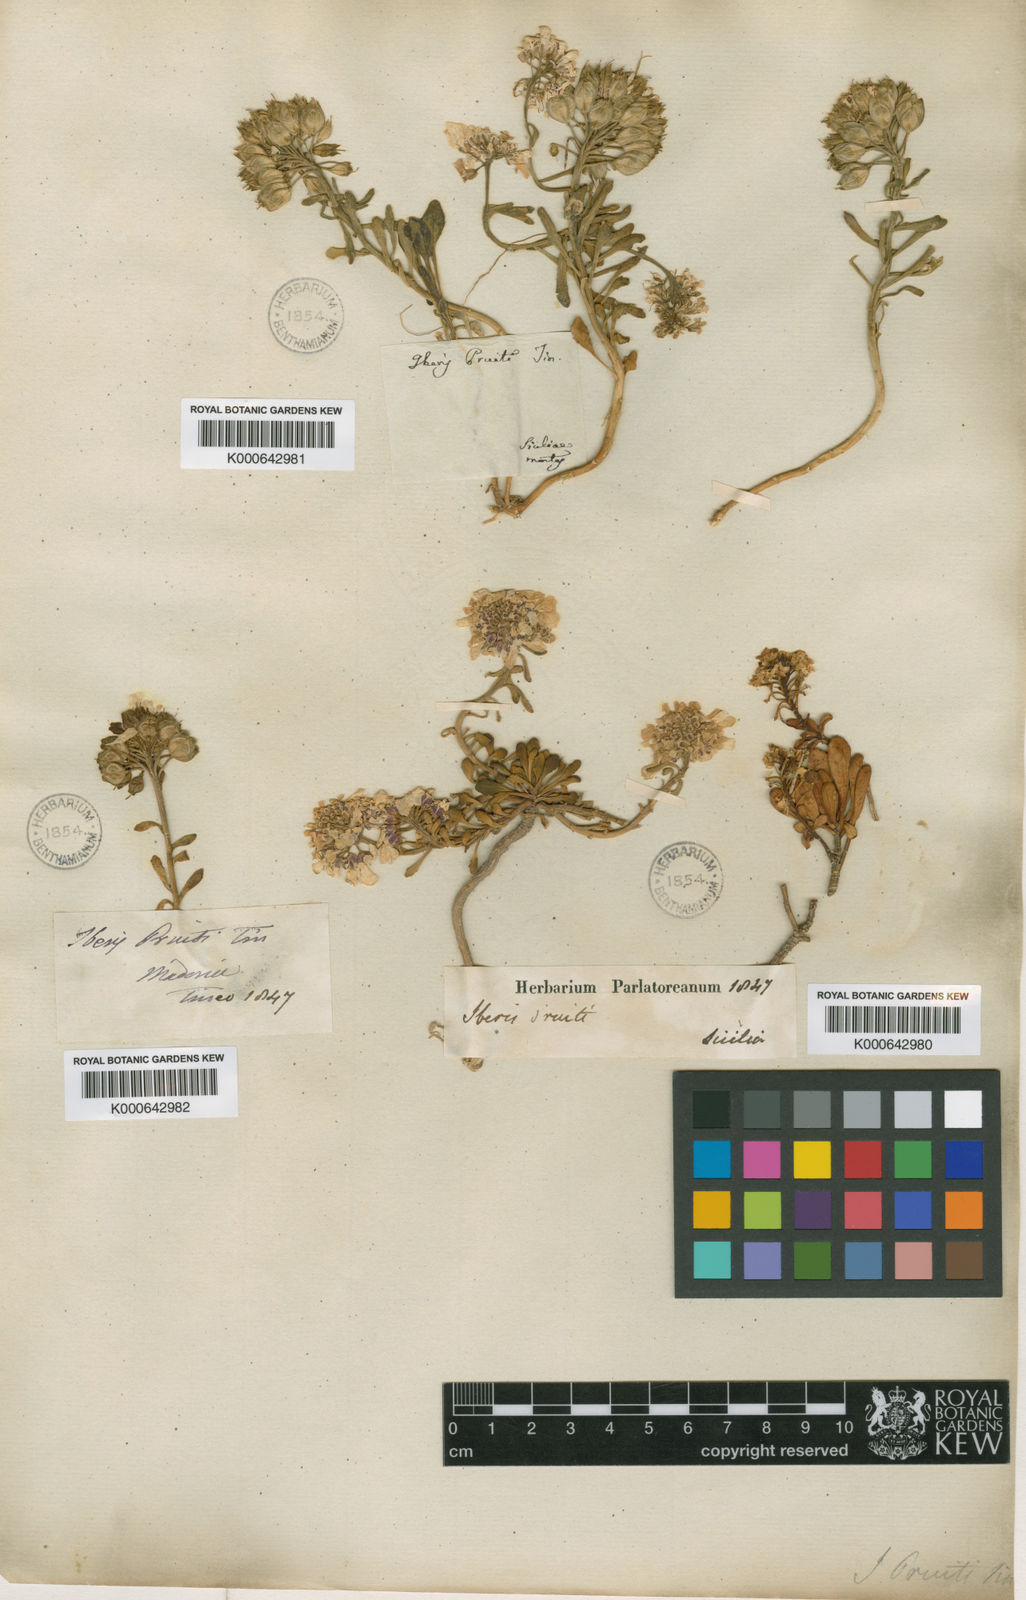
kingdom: Plantae
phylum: Tracheophyta
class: Magnoliopsida
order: Brassicales
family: Brassicaceae
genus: Iberis
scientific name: Iberis carnosa
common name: Pruit's candytuft
